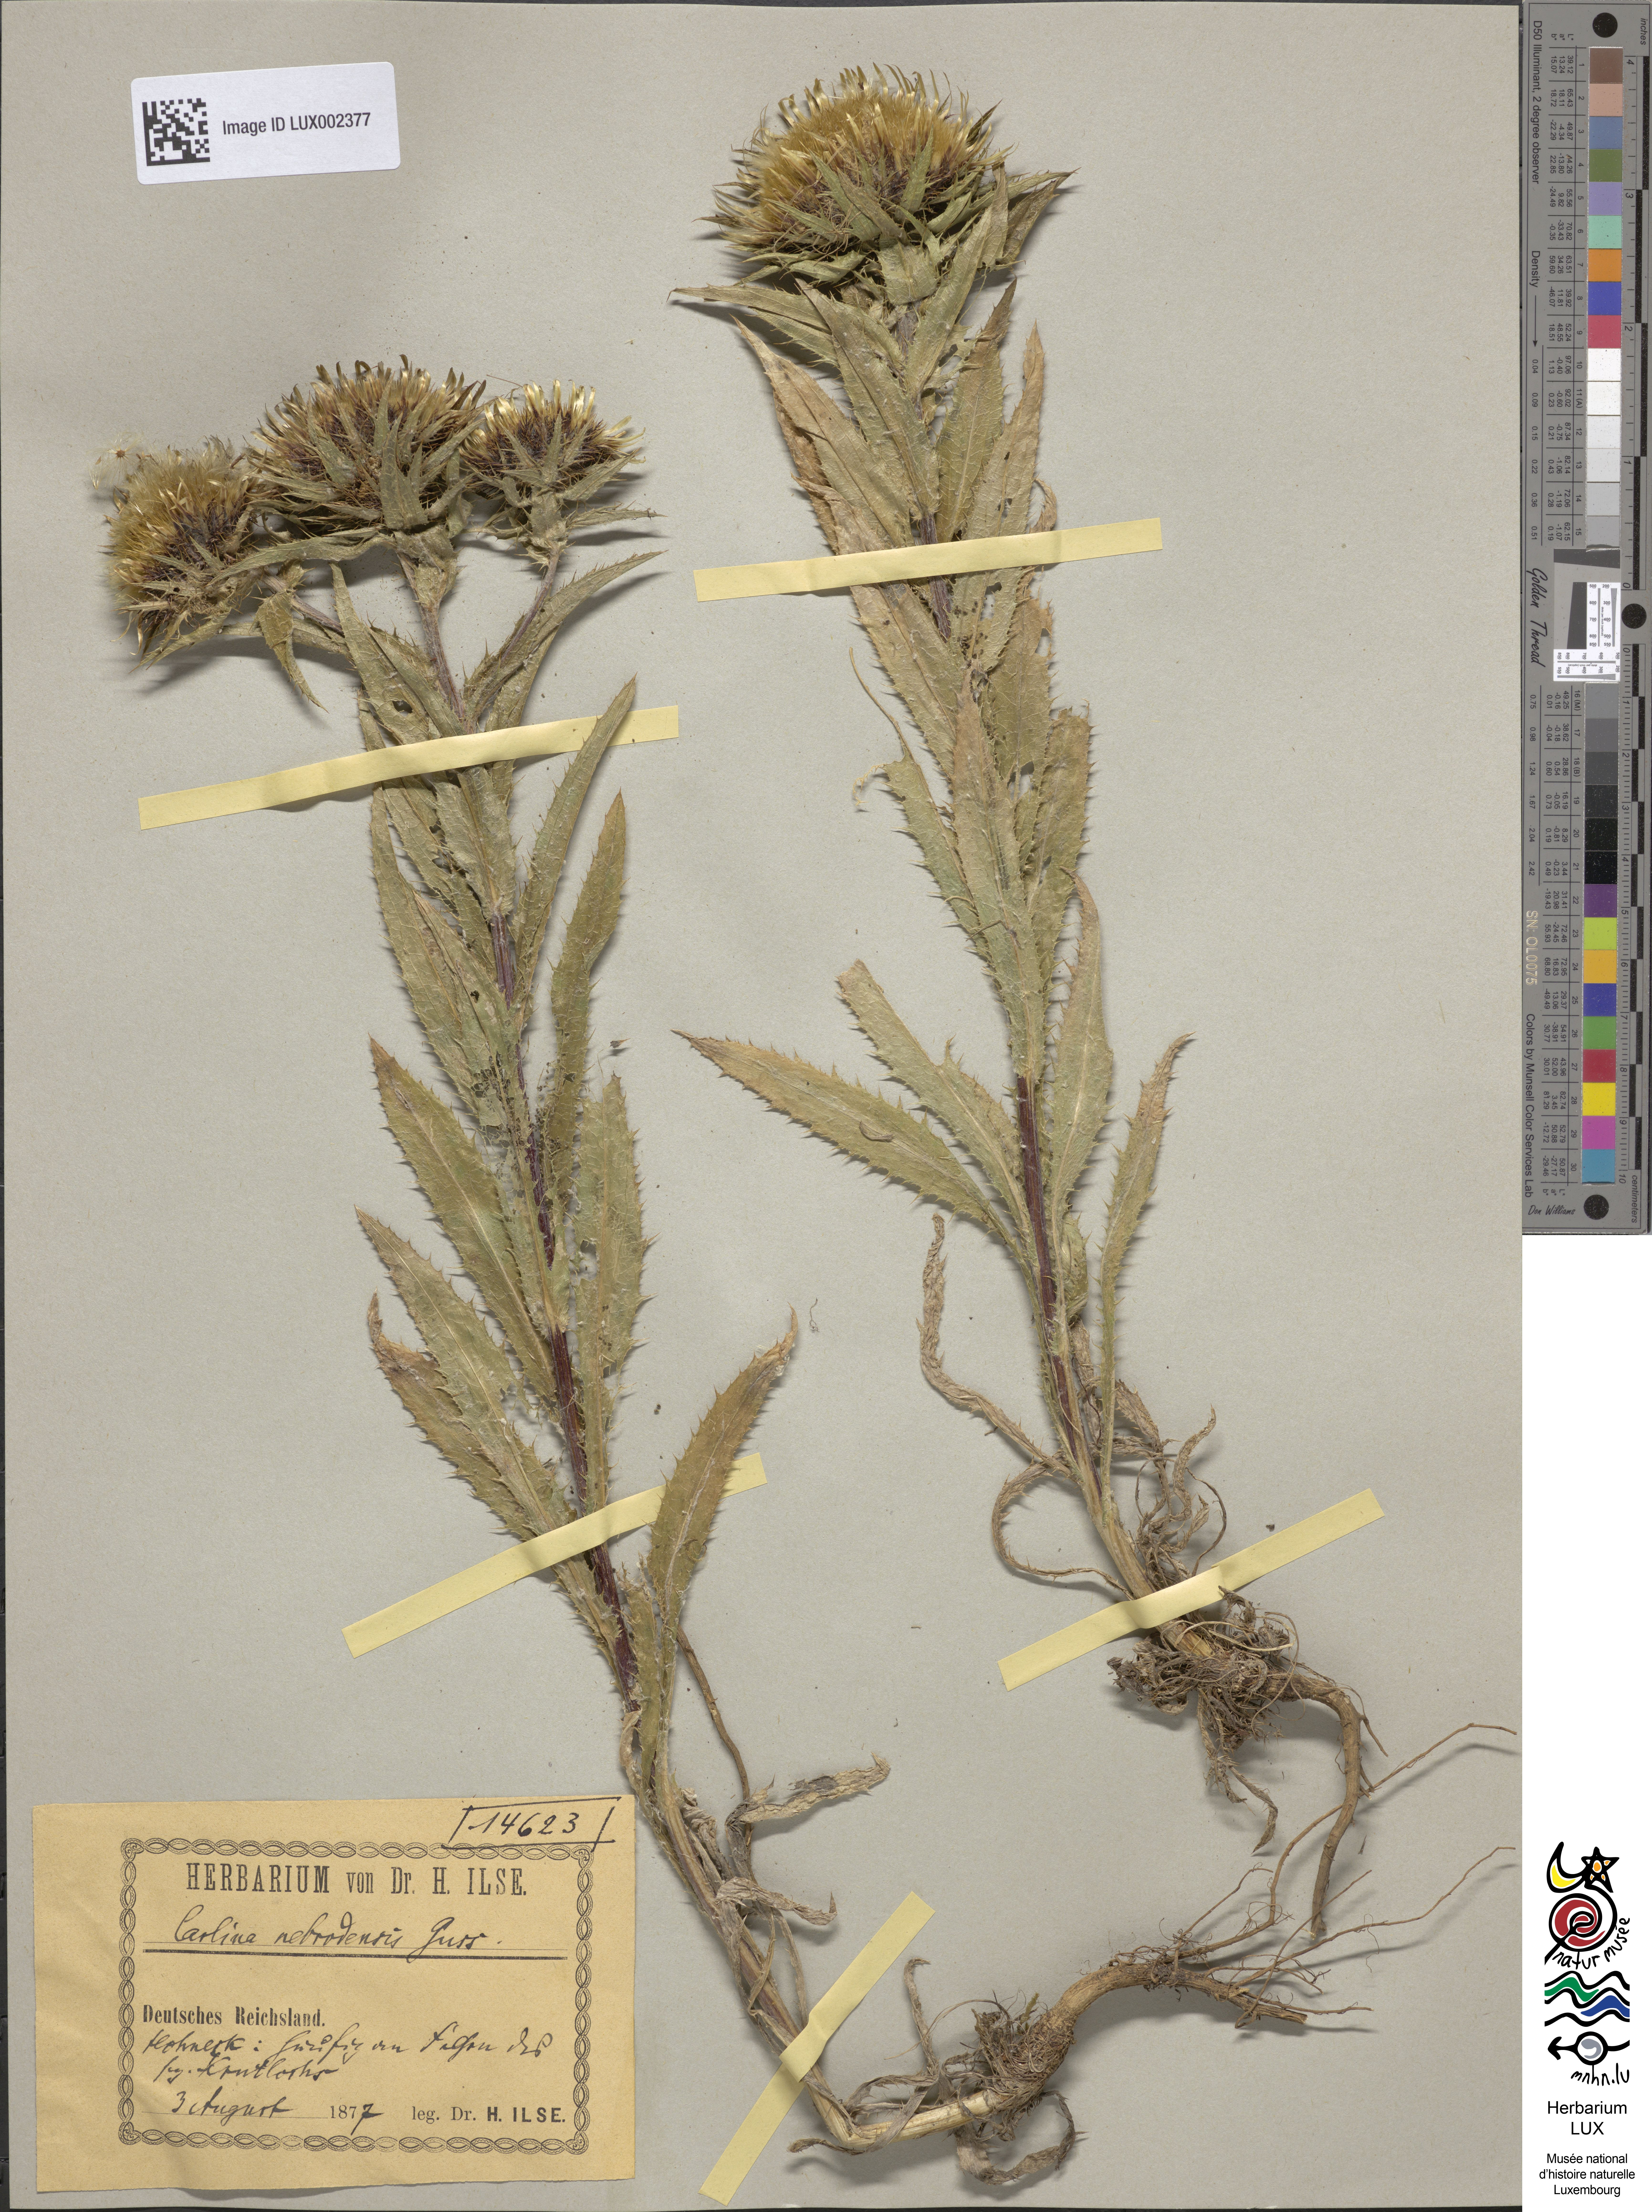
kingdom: Plantae
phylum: Tracheophyta
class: Magnoliopsida
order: Asterales
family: Asteraceae
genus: Carlina
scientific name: Carlina biebersteinii
